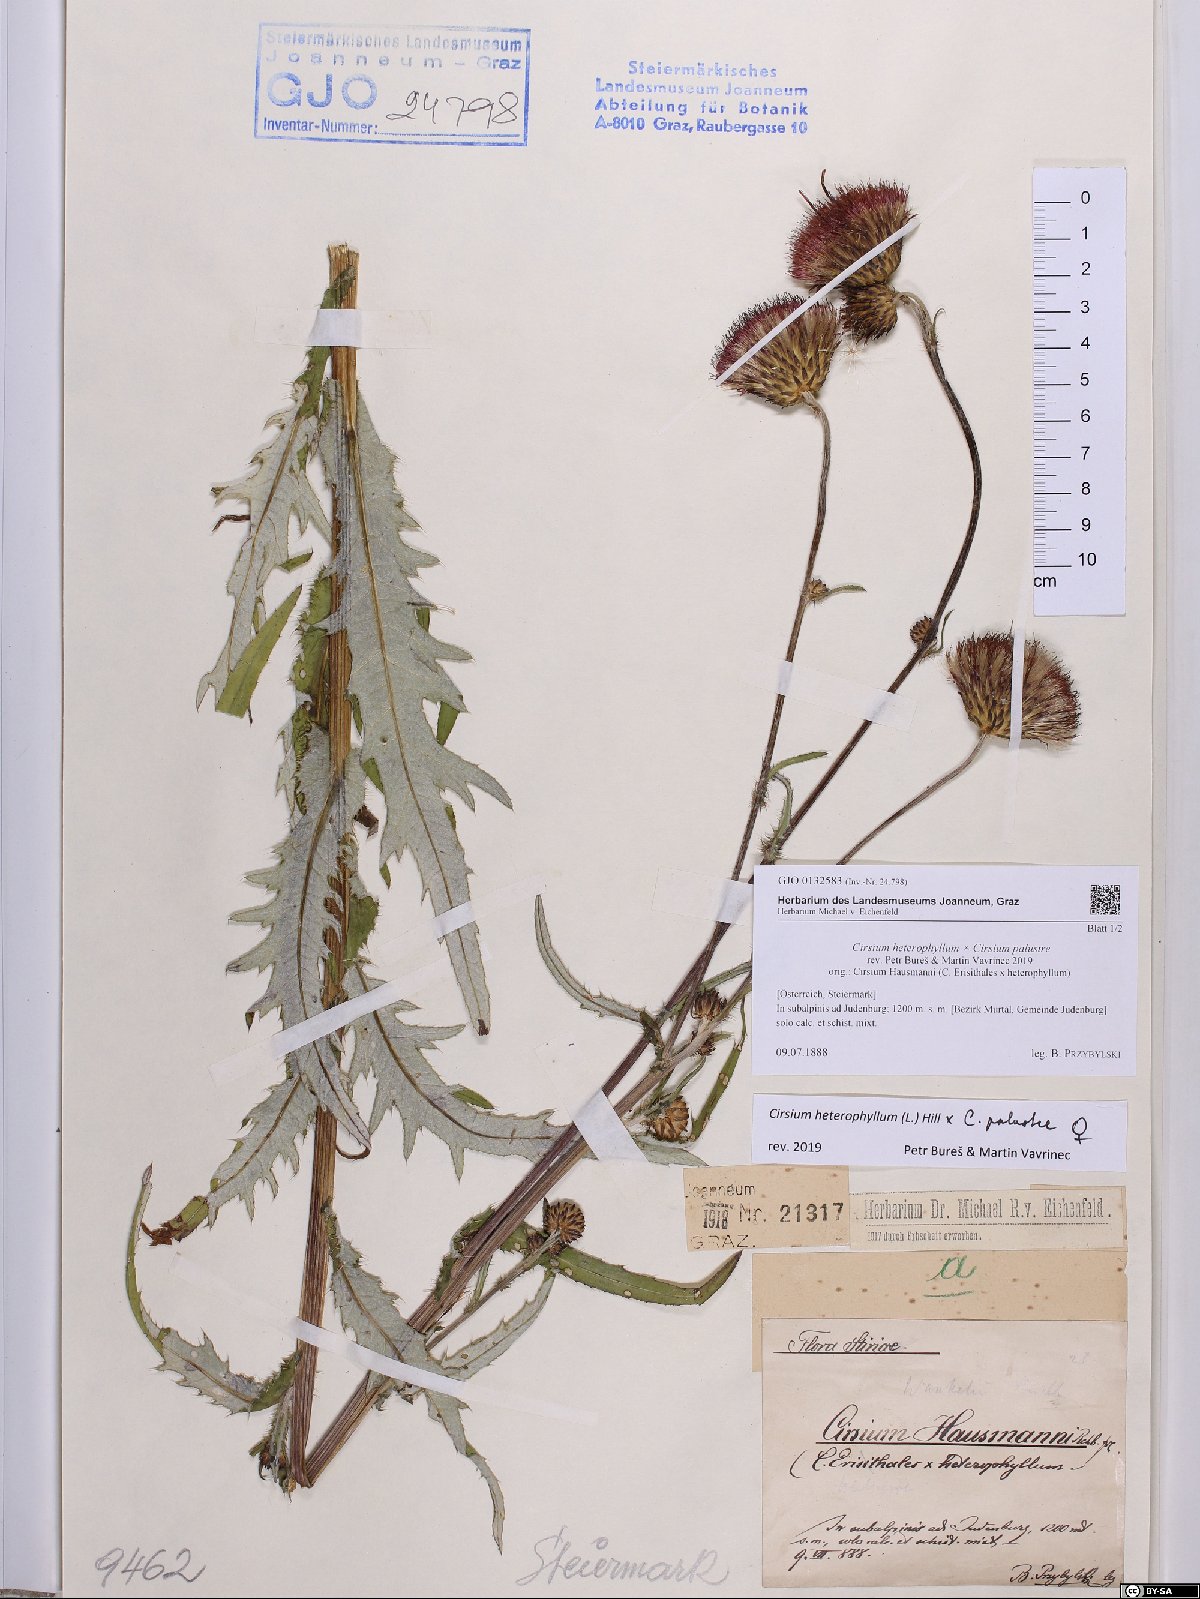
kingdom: Plantae
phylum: Tracheophyta
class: Magnoliopsida
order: Asterales
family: Asteraceae
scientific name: Asteraceae
